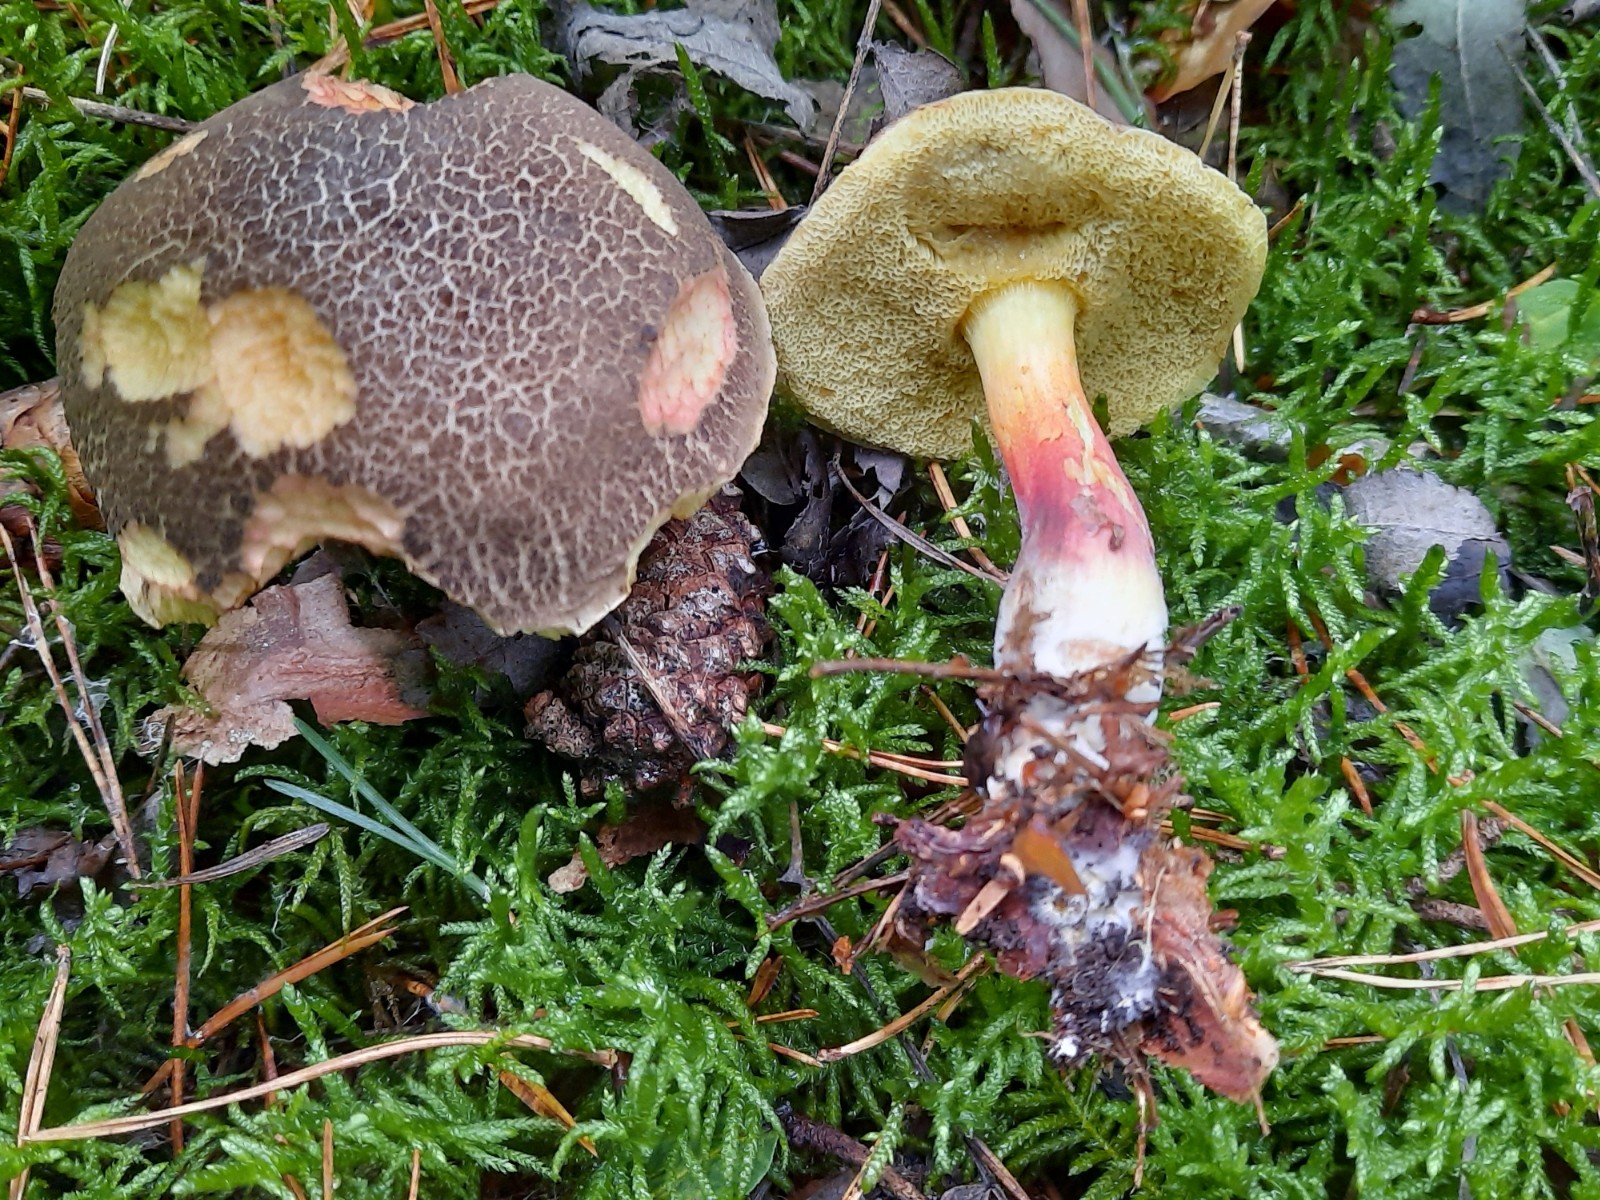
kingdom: Fungi
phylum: Basidiomycota
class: Agaricomycetes
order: Boletales
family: Boletaceae
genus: Xerocomellus
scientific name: Xerocomellus chrysenteron
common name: rødsprukken rørhat
